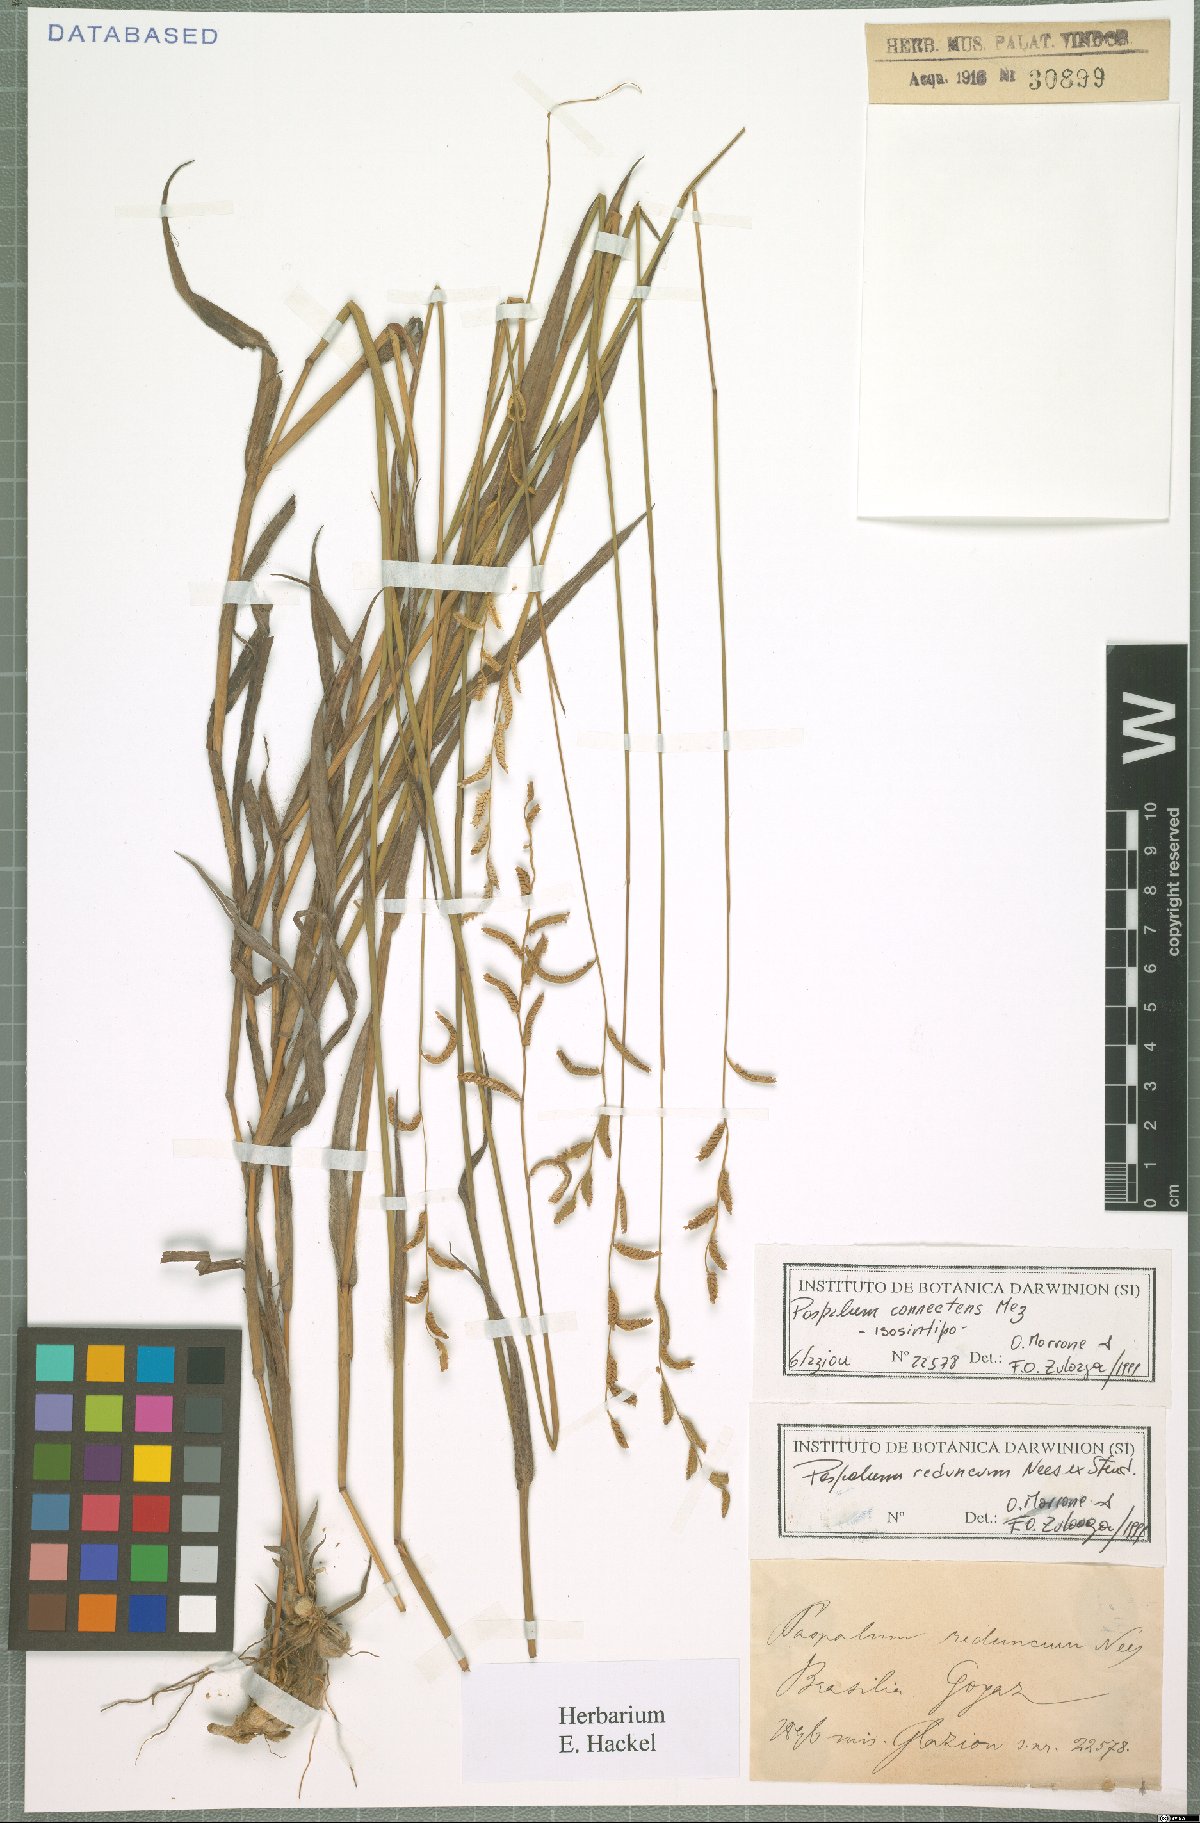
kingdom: Plantae
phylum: Tracheophyta
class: Liliopsida
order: Poales
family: Poaceae
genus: Paspalum
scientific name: Paspalum reduncum
